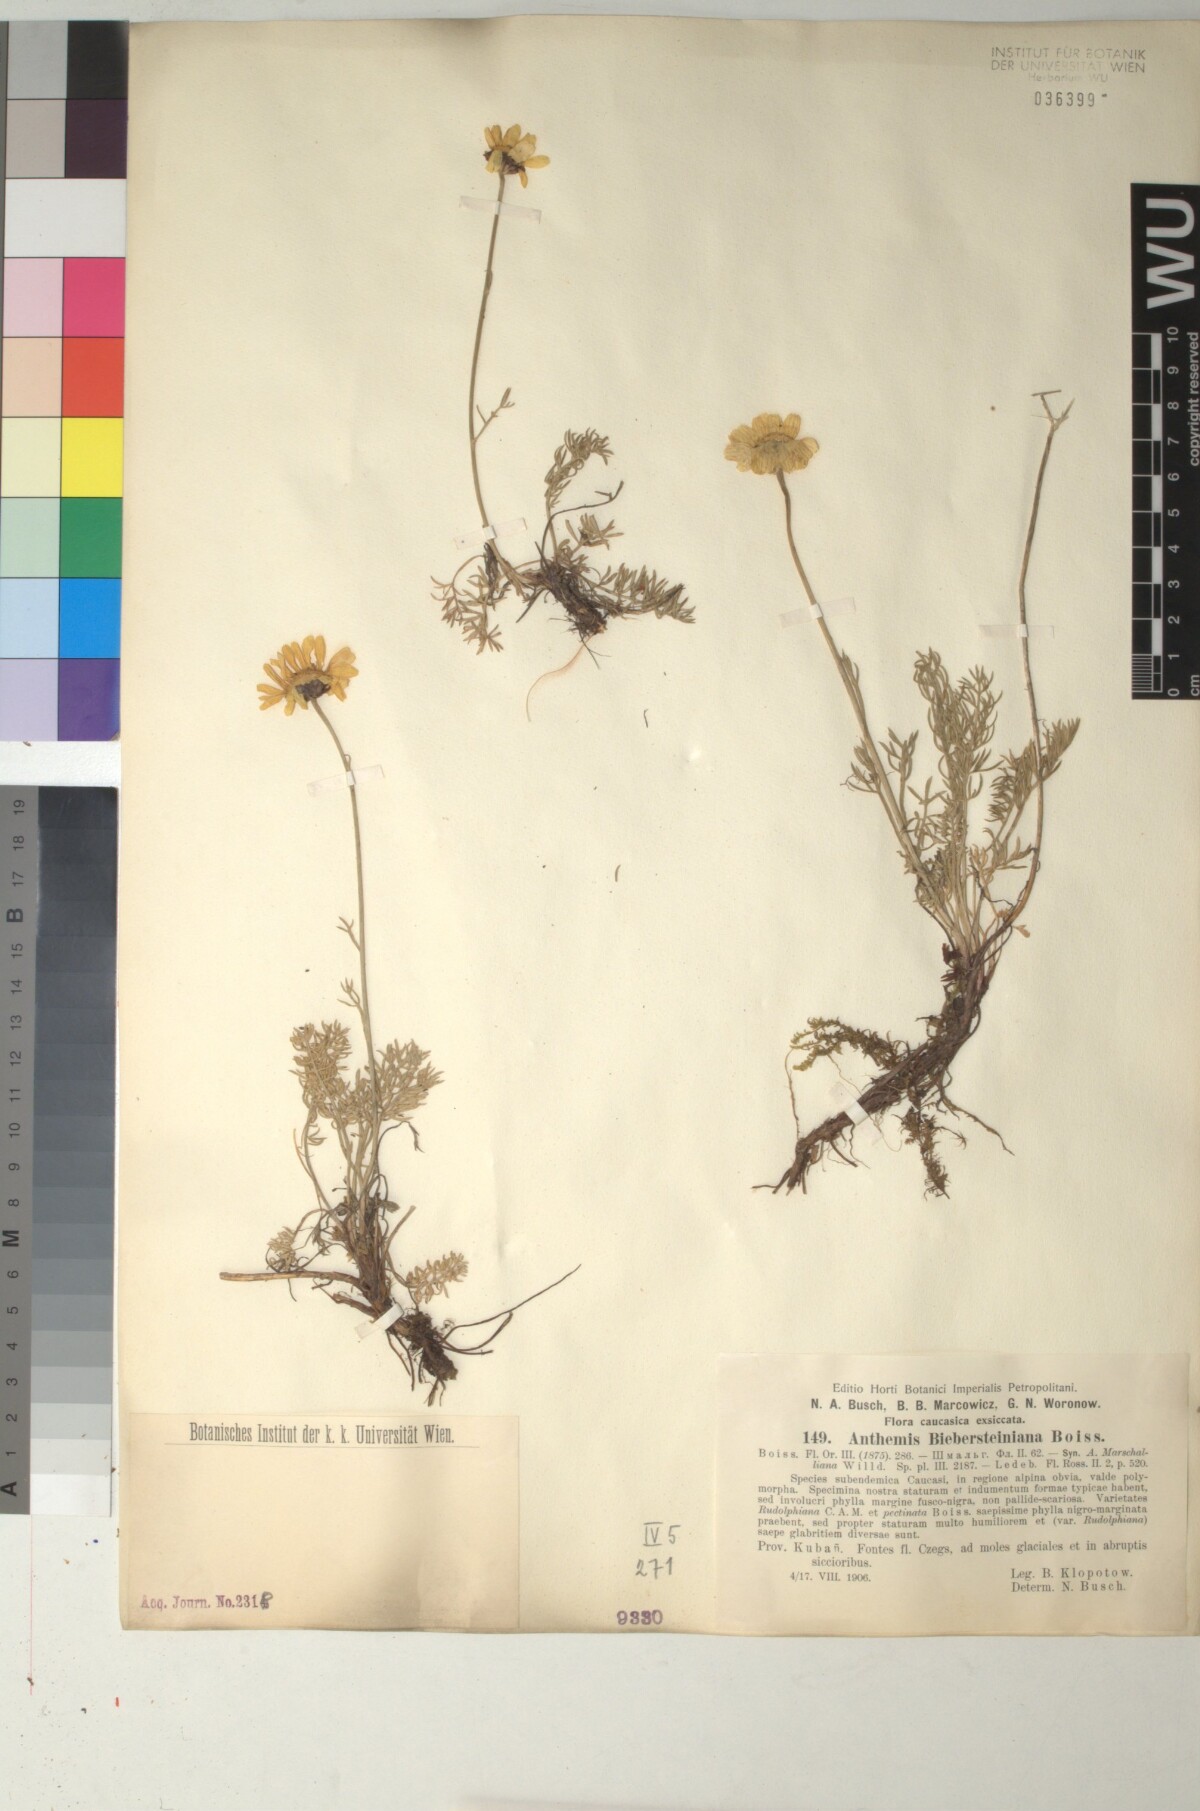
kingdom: Plantae
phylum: Tracheophyta
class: Magnoliopsida
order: Asterales
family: Asteraceae
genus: Archanthemis
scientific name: Archanthemis marschalliana
